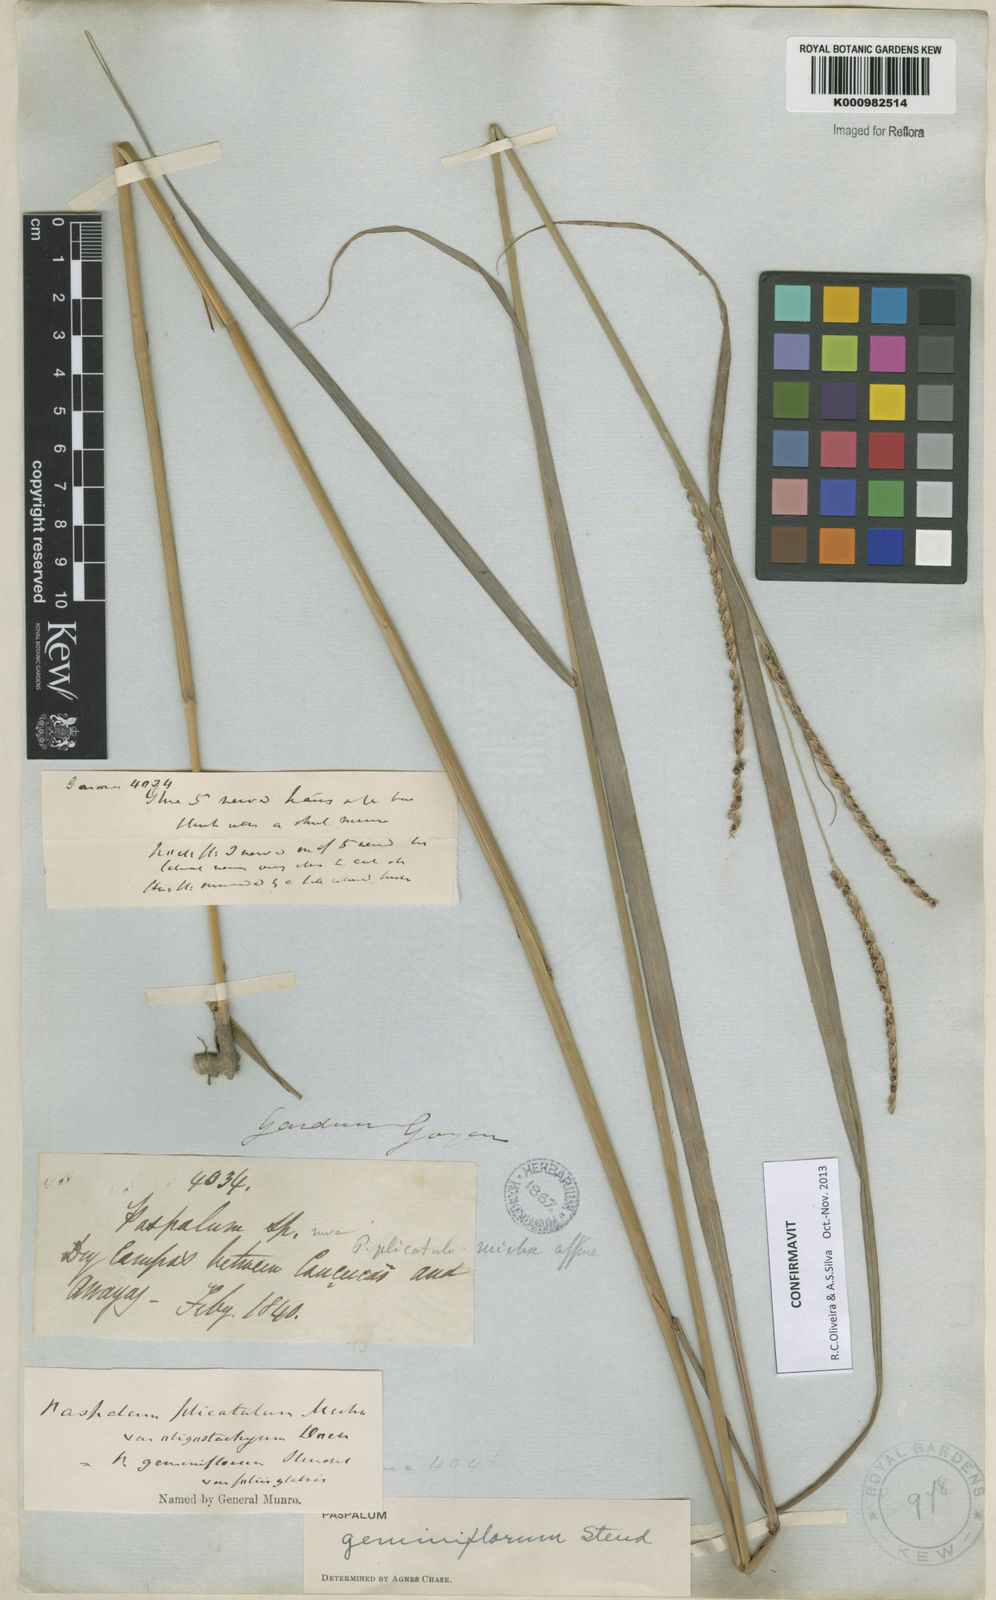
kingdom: Plantae
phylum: Tracheophyta
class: Liliopsida
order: Poales
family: Poaceae
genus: Paspalum
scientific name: Paspalum geminiflorum
